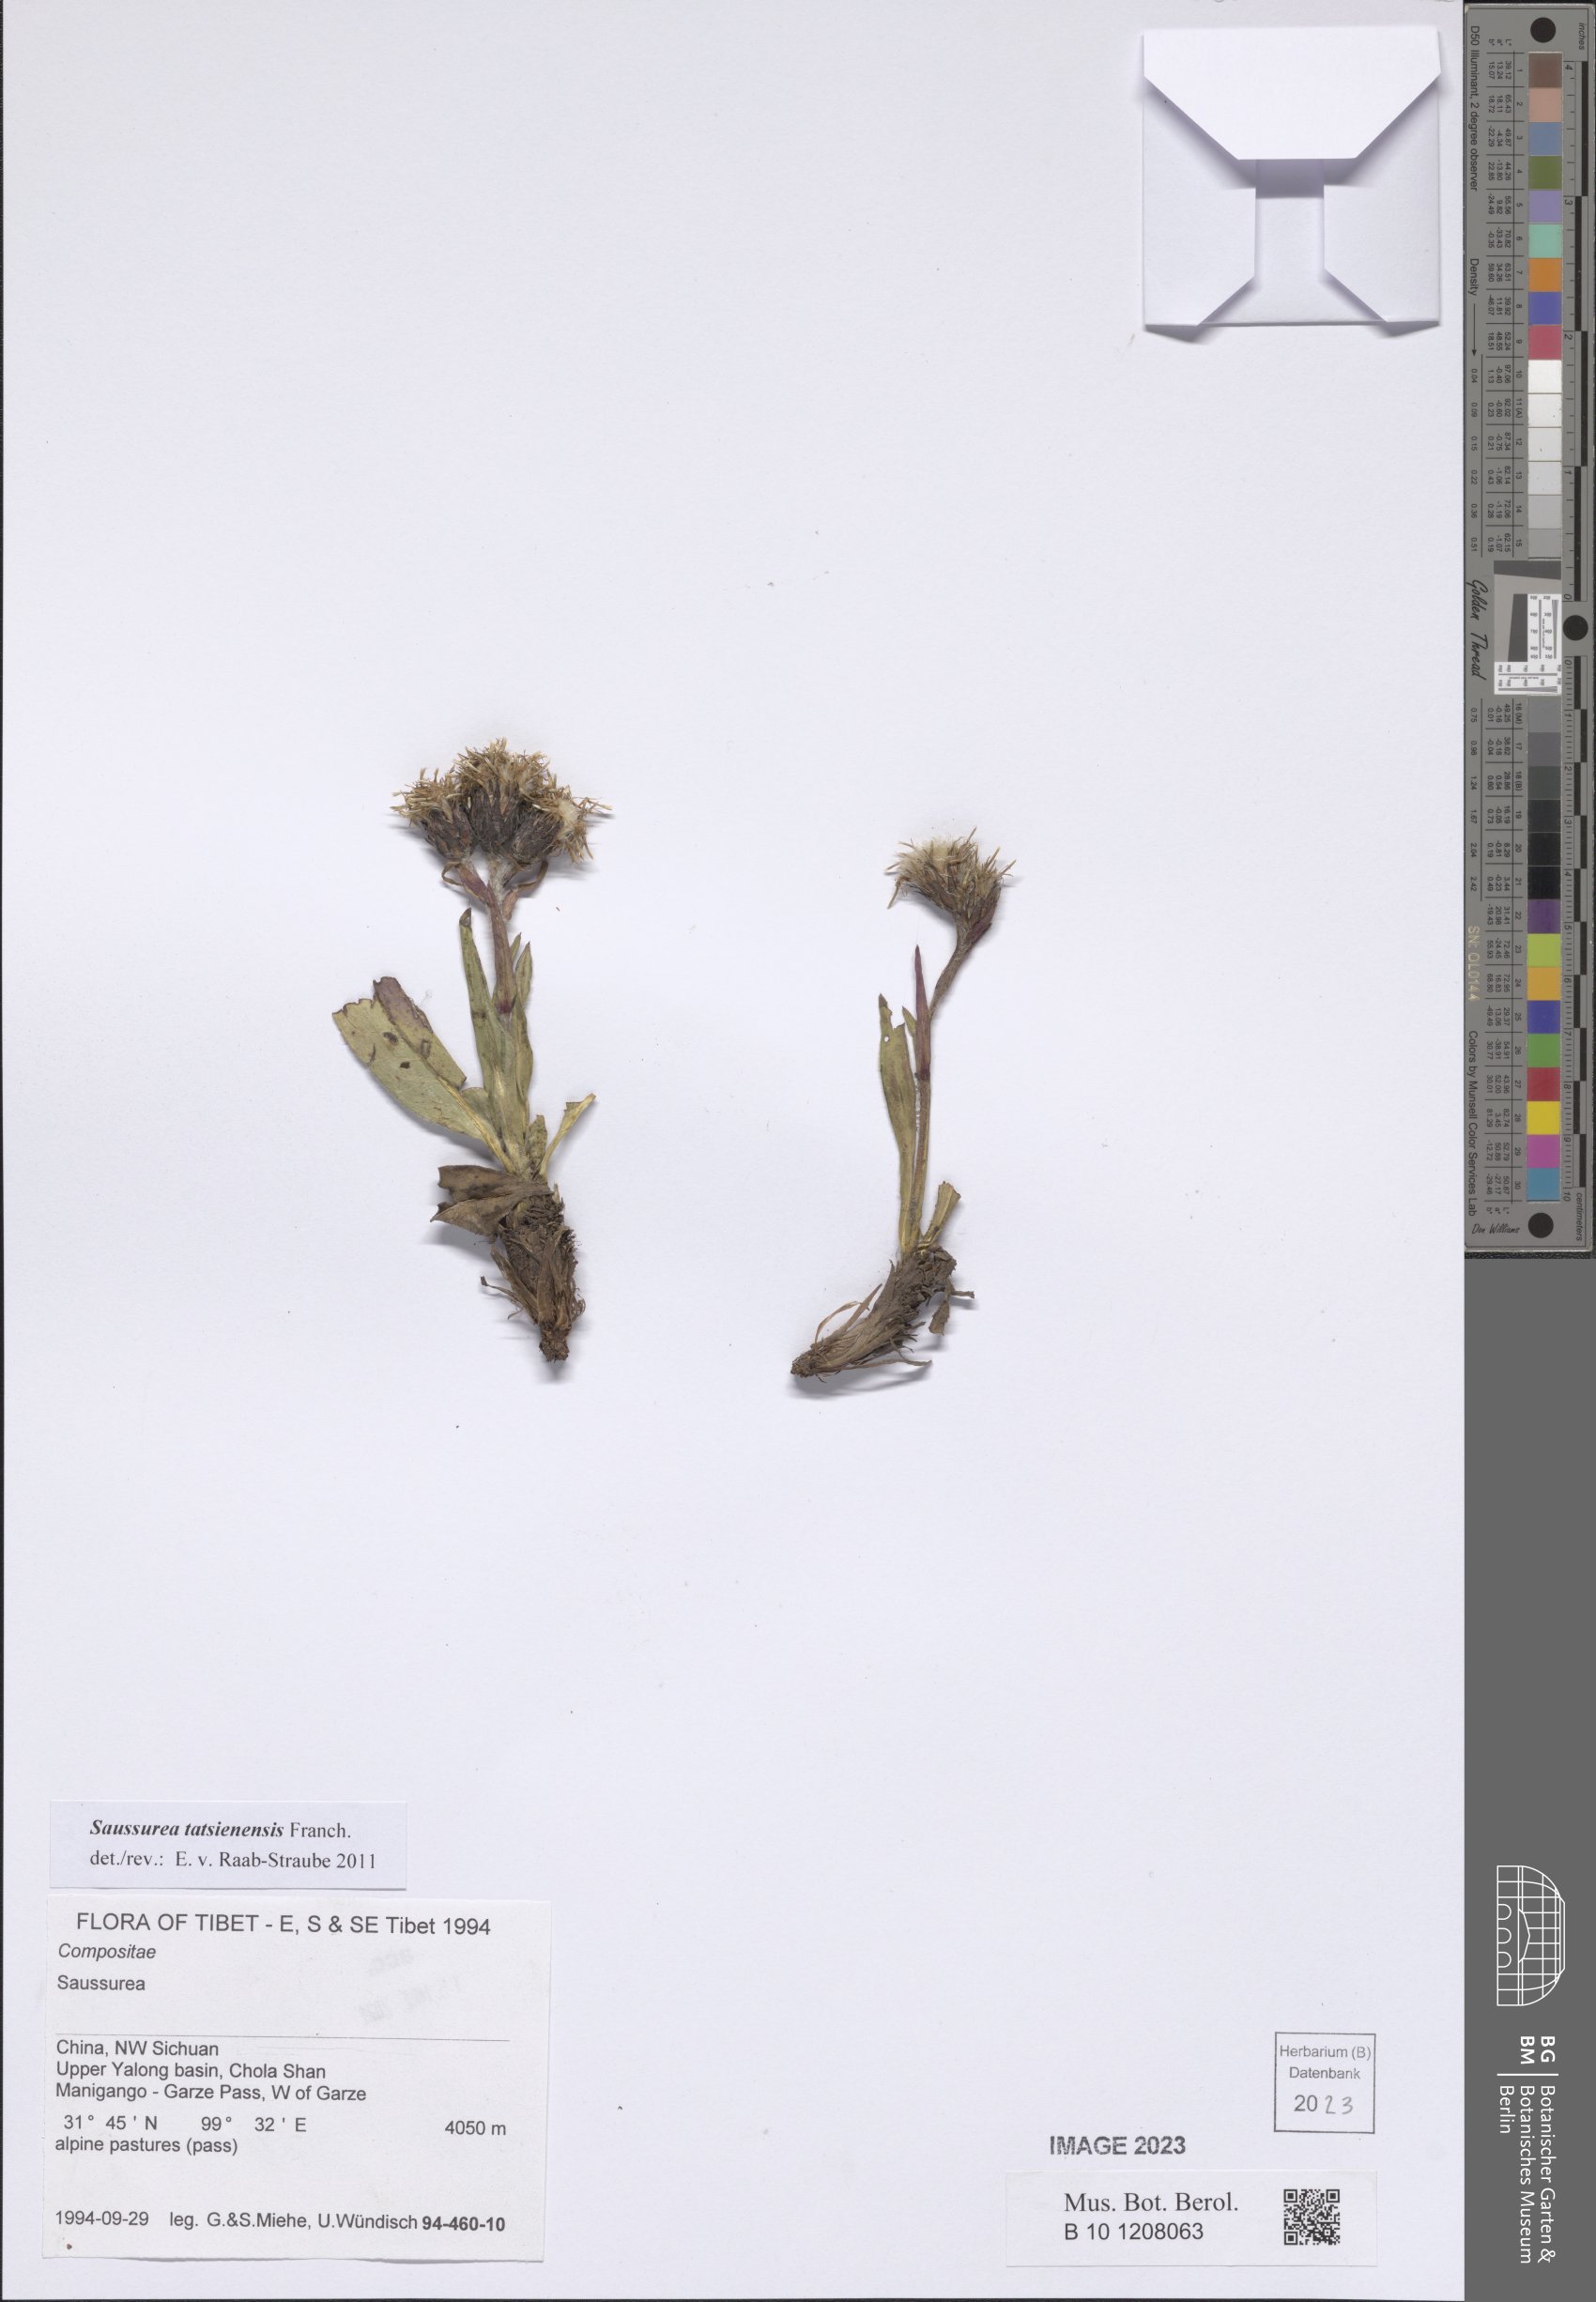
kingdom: Plantae
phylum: Tracheophyta
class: Magnoliopsida
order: Asterales
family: Asteraceae
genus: Saussurea
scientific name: Saussurea tatsienensis
